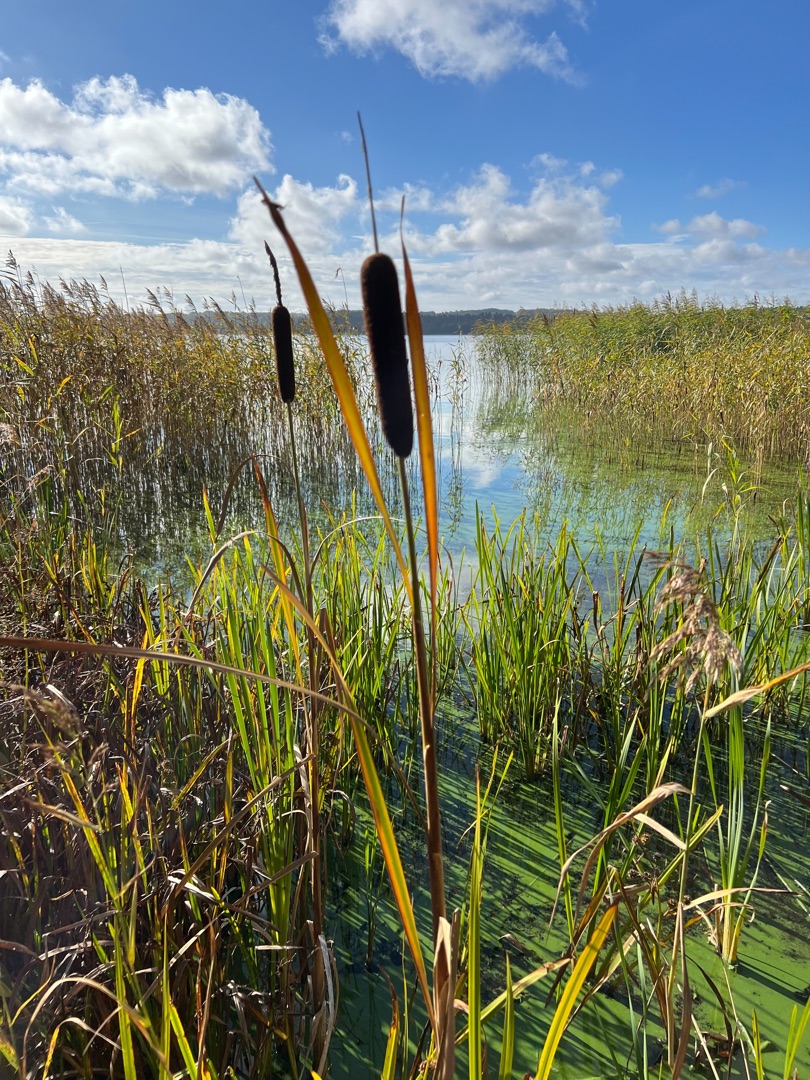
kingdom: Plantae
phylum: Tracheophyta
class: Liliopsida
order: Poales
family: Typhaceae
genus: Typha
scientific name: Typha latifolia
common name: Bredbladet dunhammer
